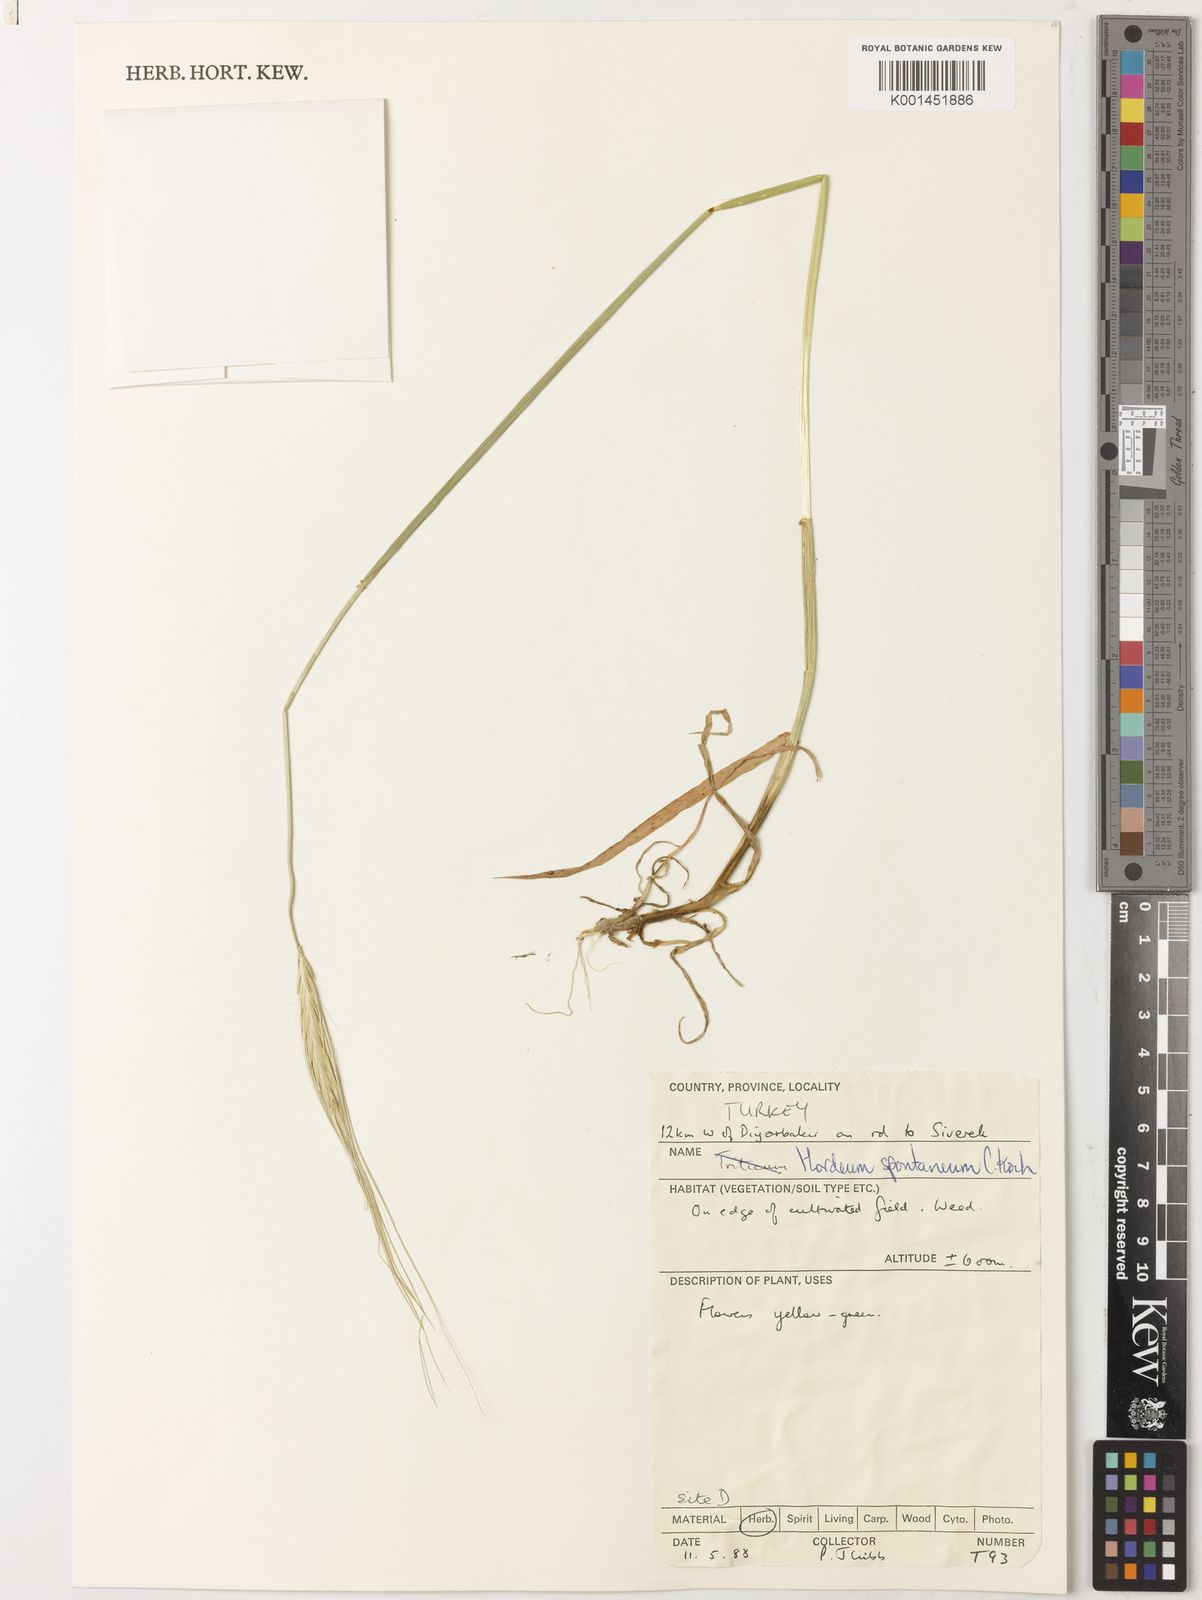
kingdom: Plantae
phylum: Tracheophyta
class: Liliopsida
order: Poales
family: Poaceae
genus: Hordeum
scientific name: Hordeum spontaneum
